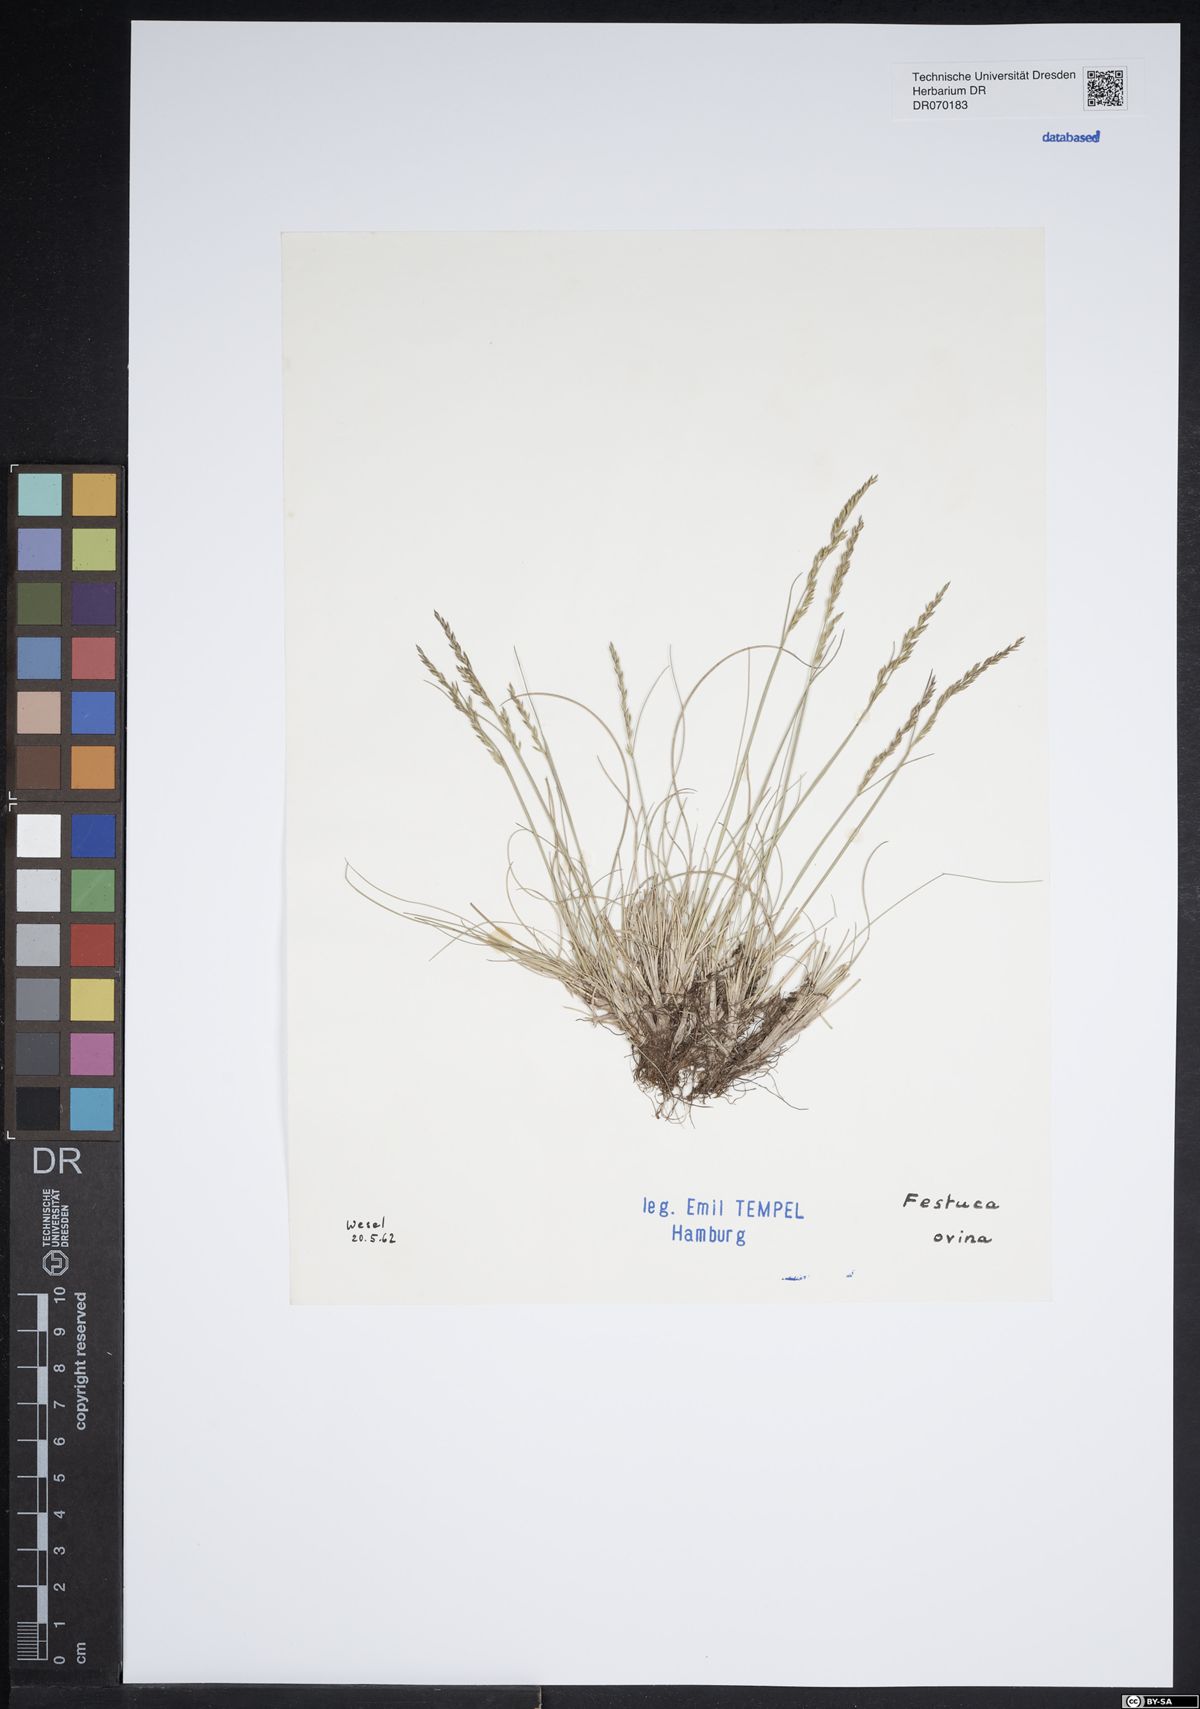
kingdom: Plantae
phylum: Tracheophyta
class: Liliopsida
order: Poales
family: Poaceae
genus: Festuca
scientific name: Festuca ovina
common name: Sheep fescue
